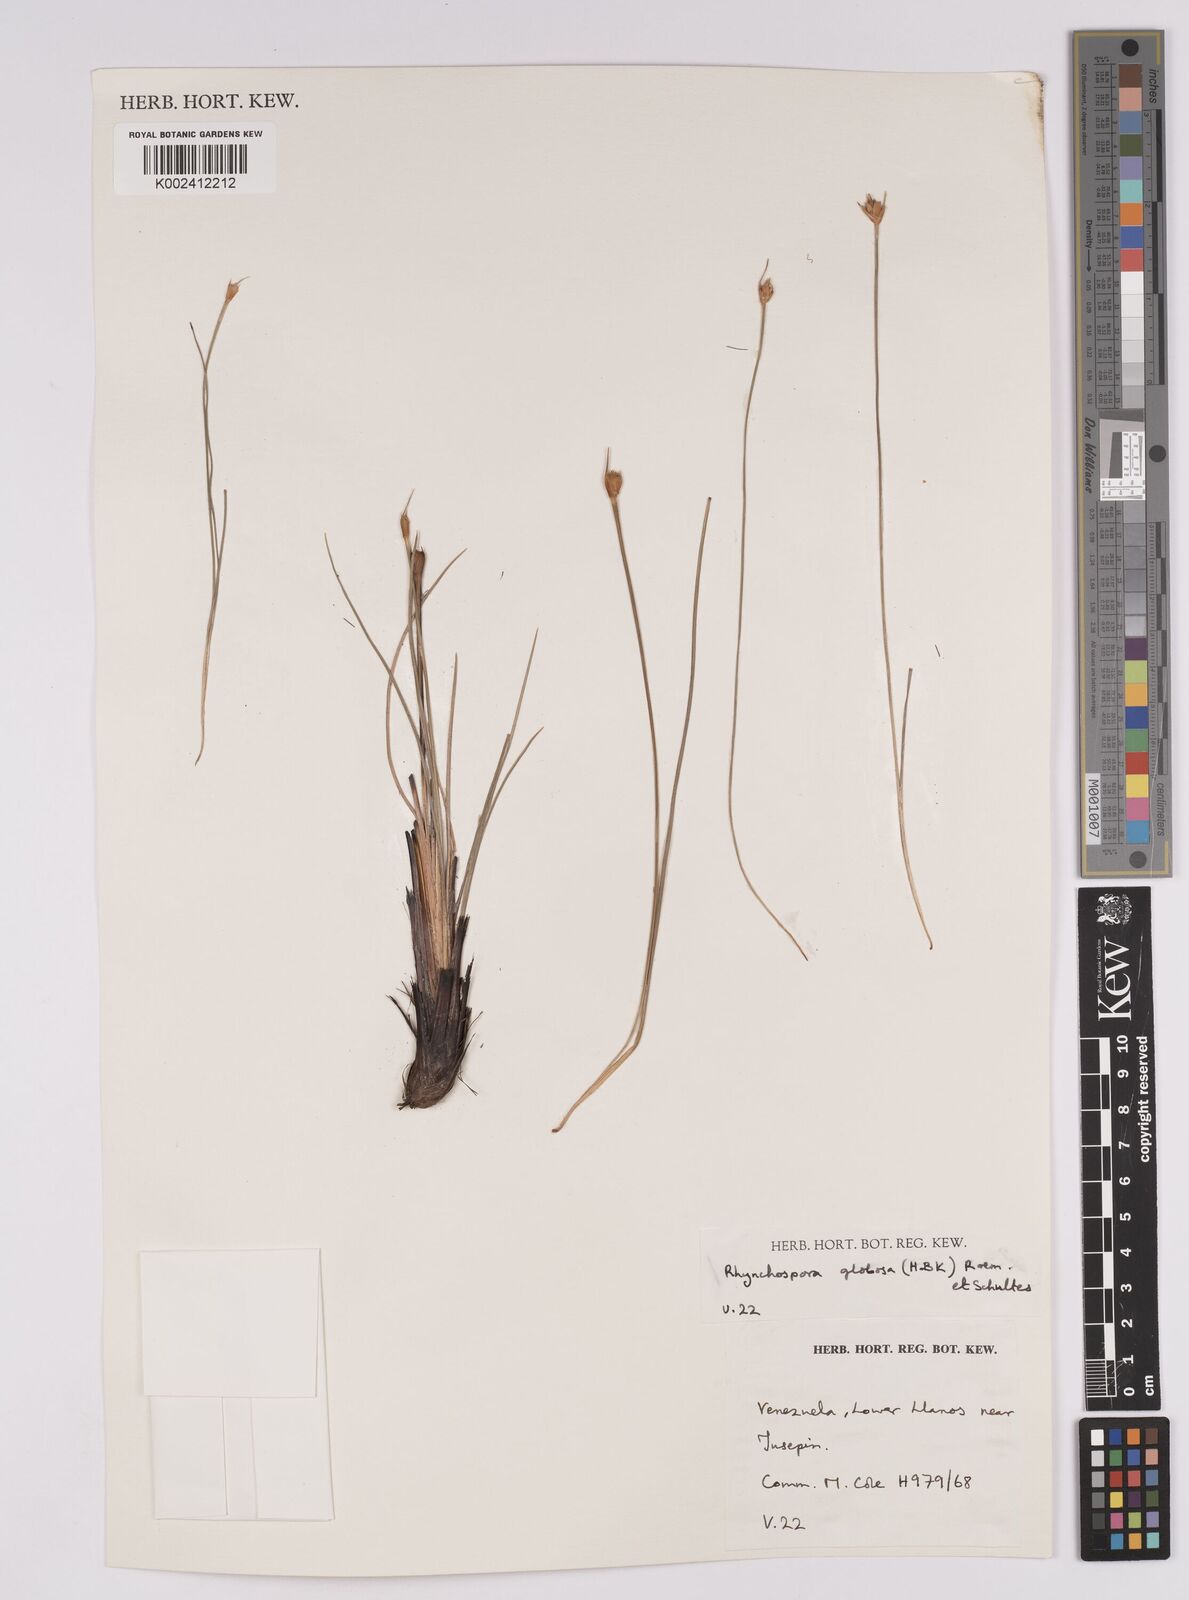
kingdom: Plantae
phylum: Tracheophyta
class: Liliopsida
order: Poales
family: Cyperaceae
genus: Rhynchospora
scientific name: Rhynchospora globosa
